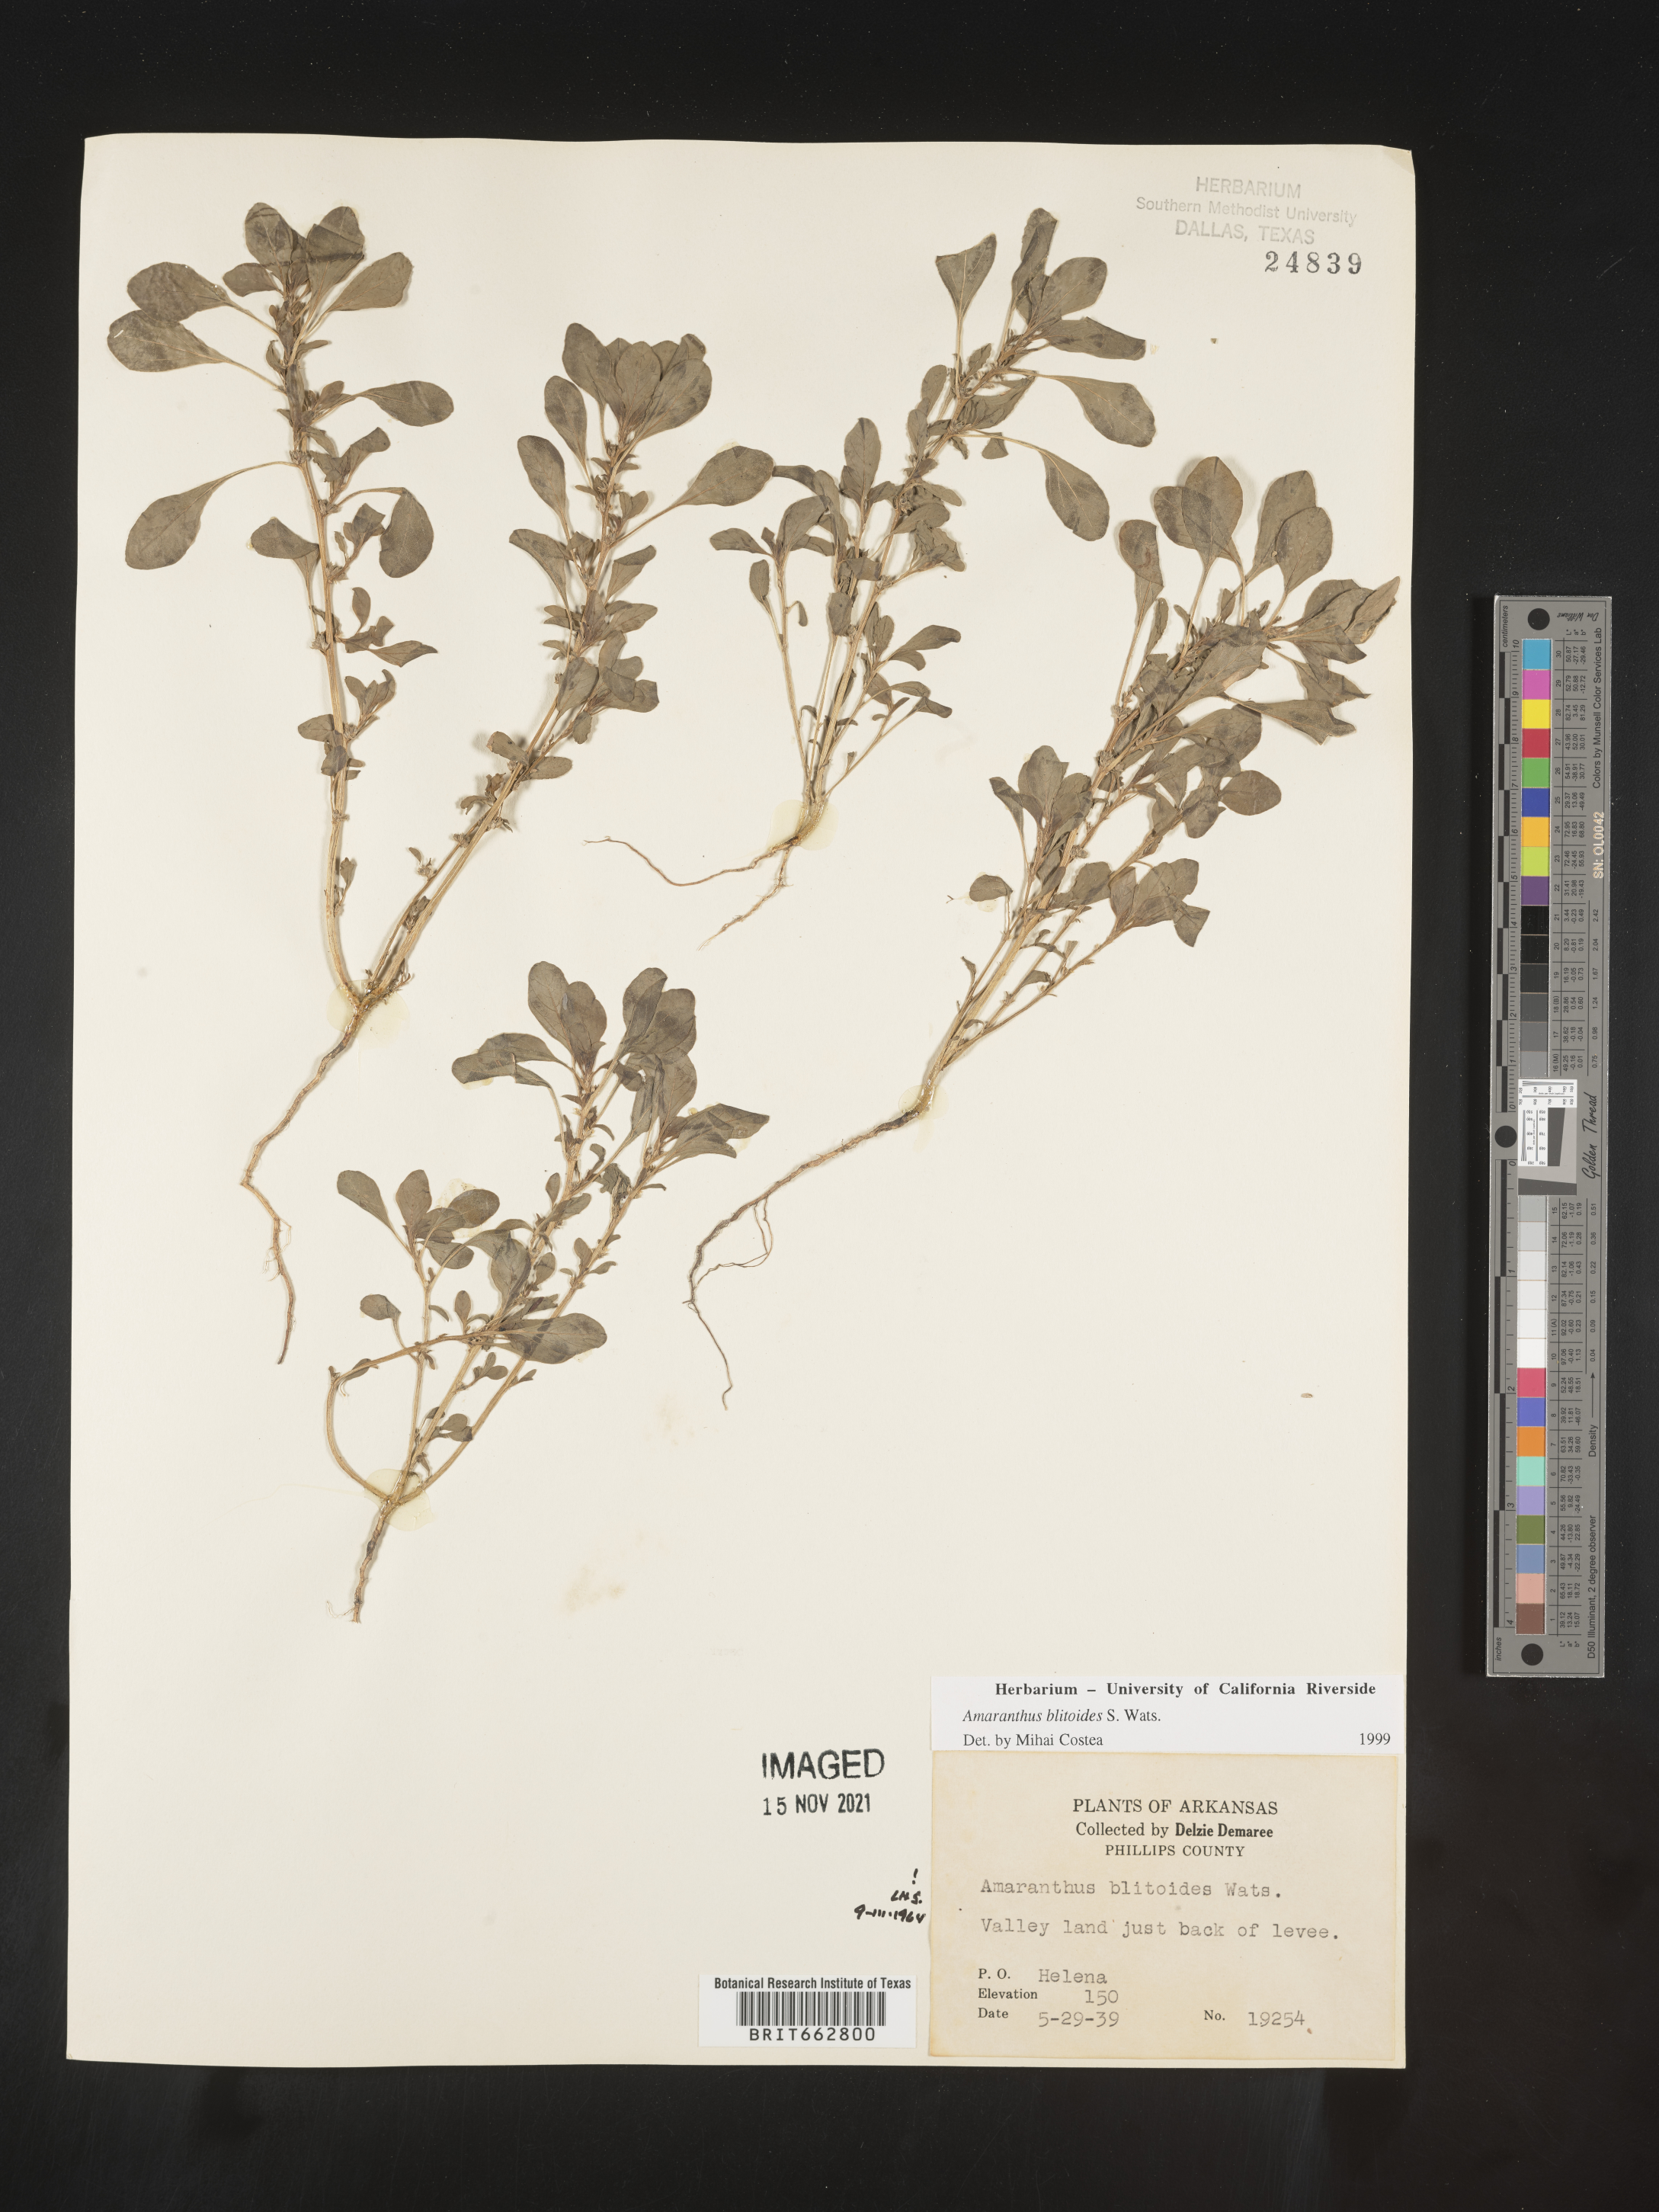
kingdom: Plantae
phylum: Tracheophyta
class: Magnoliopsida
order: Caryophyllales
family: Amaranthaceae
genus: Amaranthus
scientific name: Amaranthus blitoides
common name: Prostrate pigweed
